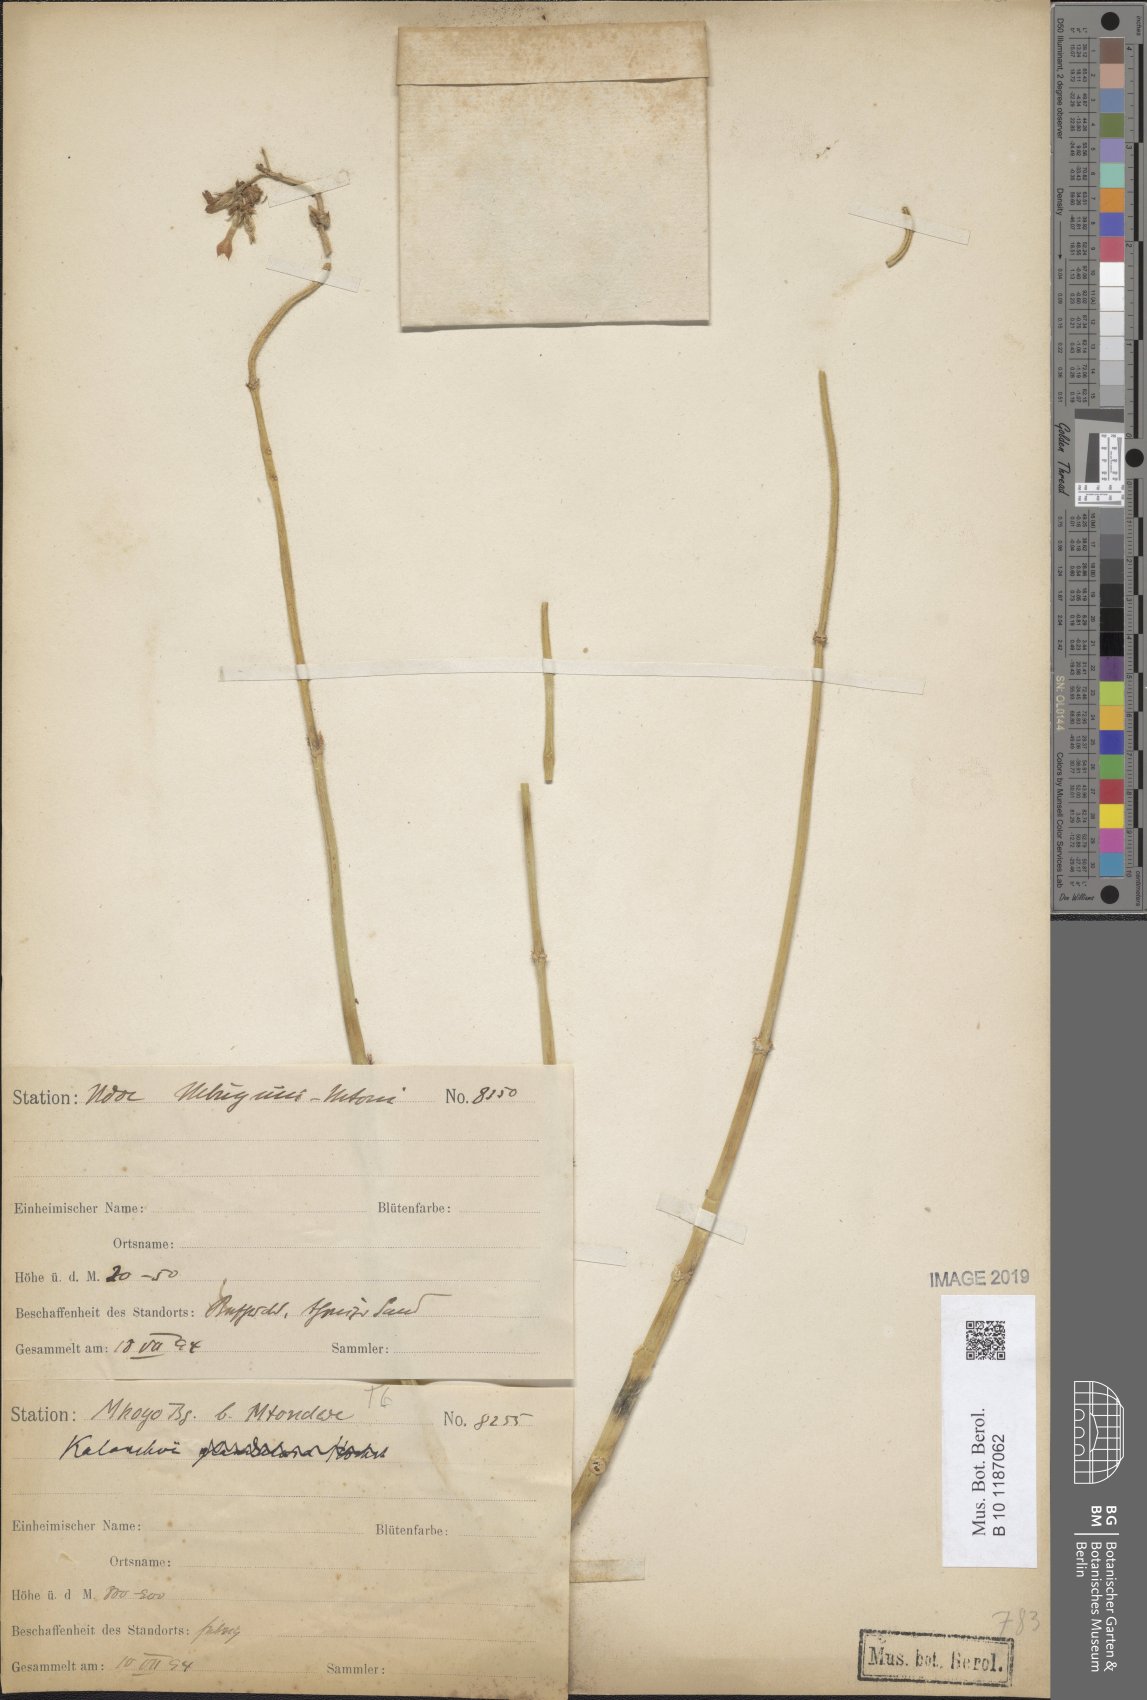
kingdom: Plantae
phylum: Tracheophyta
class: Magnoliopsida
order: Saxifragales
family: Crassulaceae
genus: Kalanchoe
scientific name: Kalanchoe
